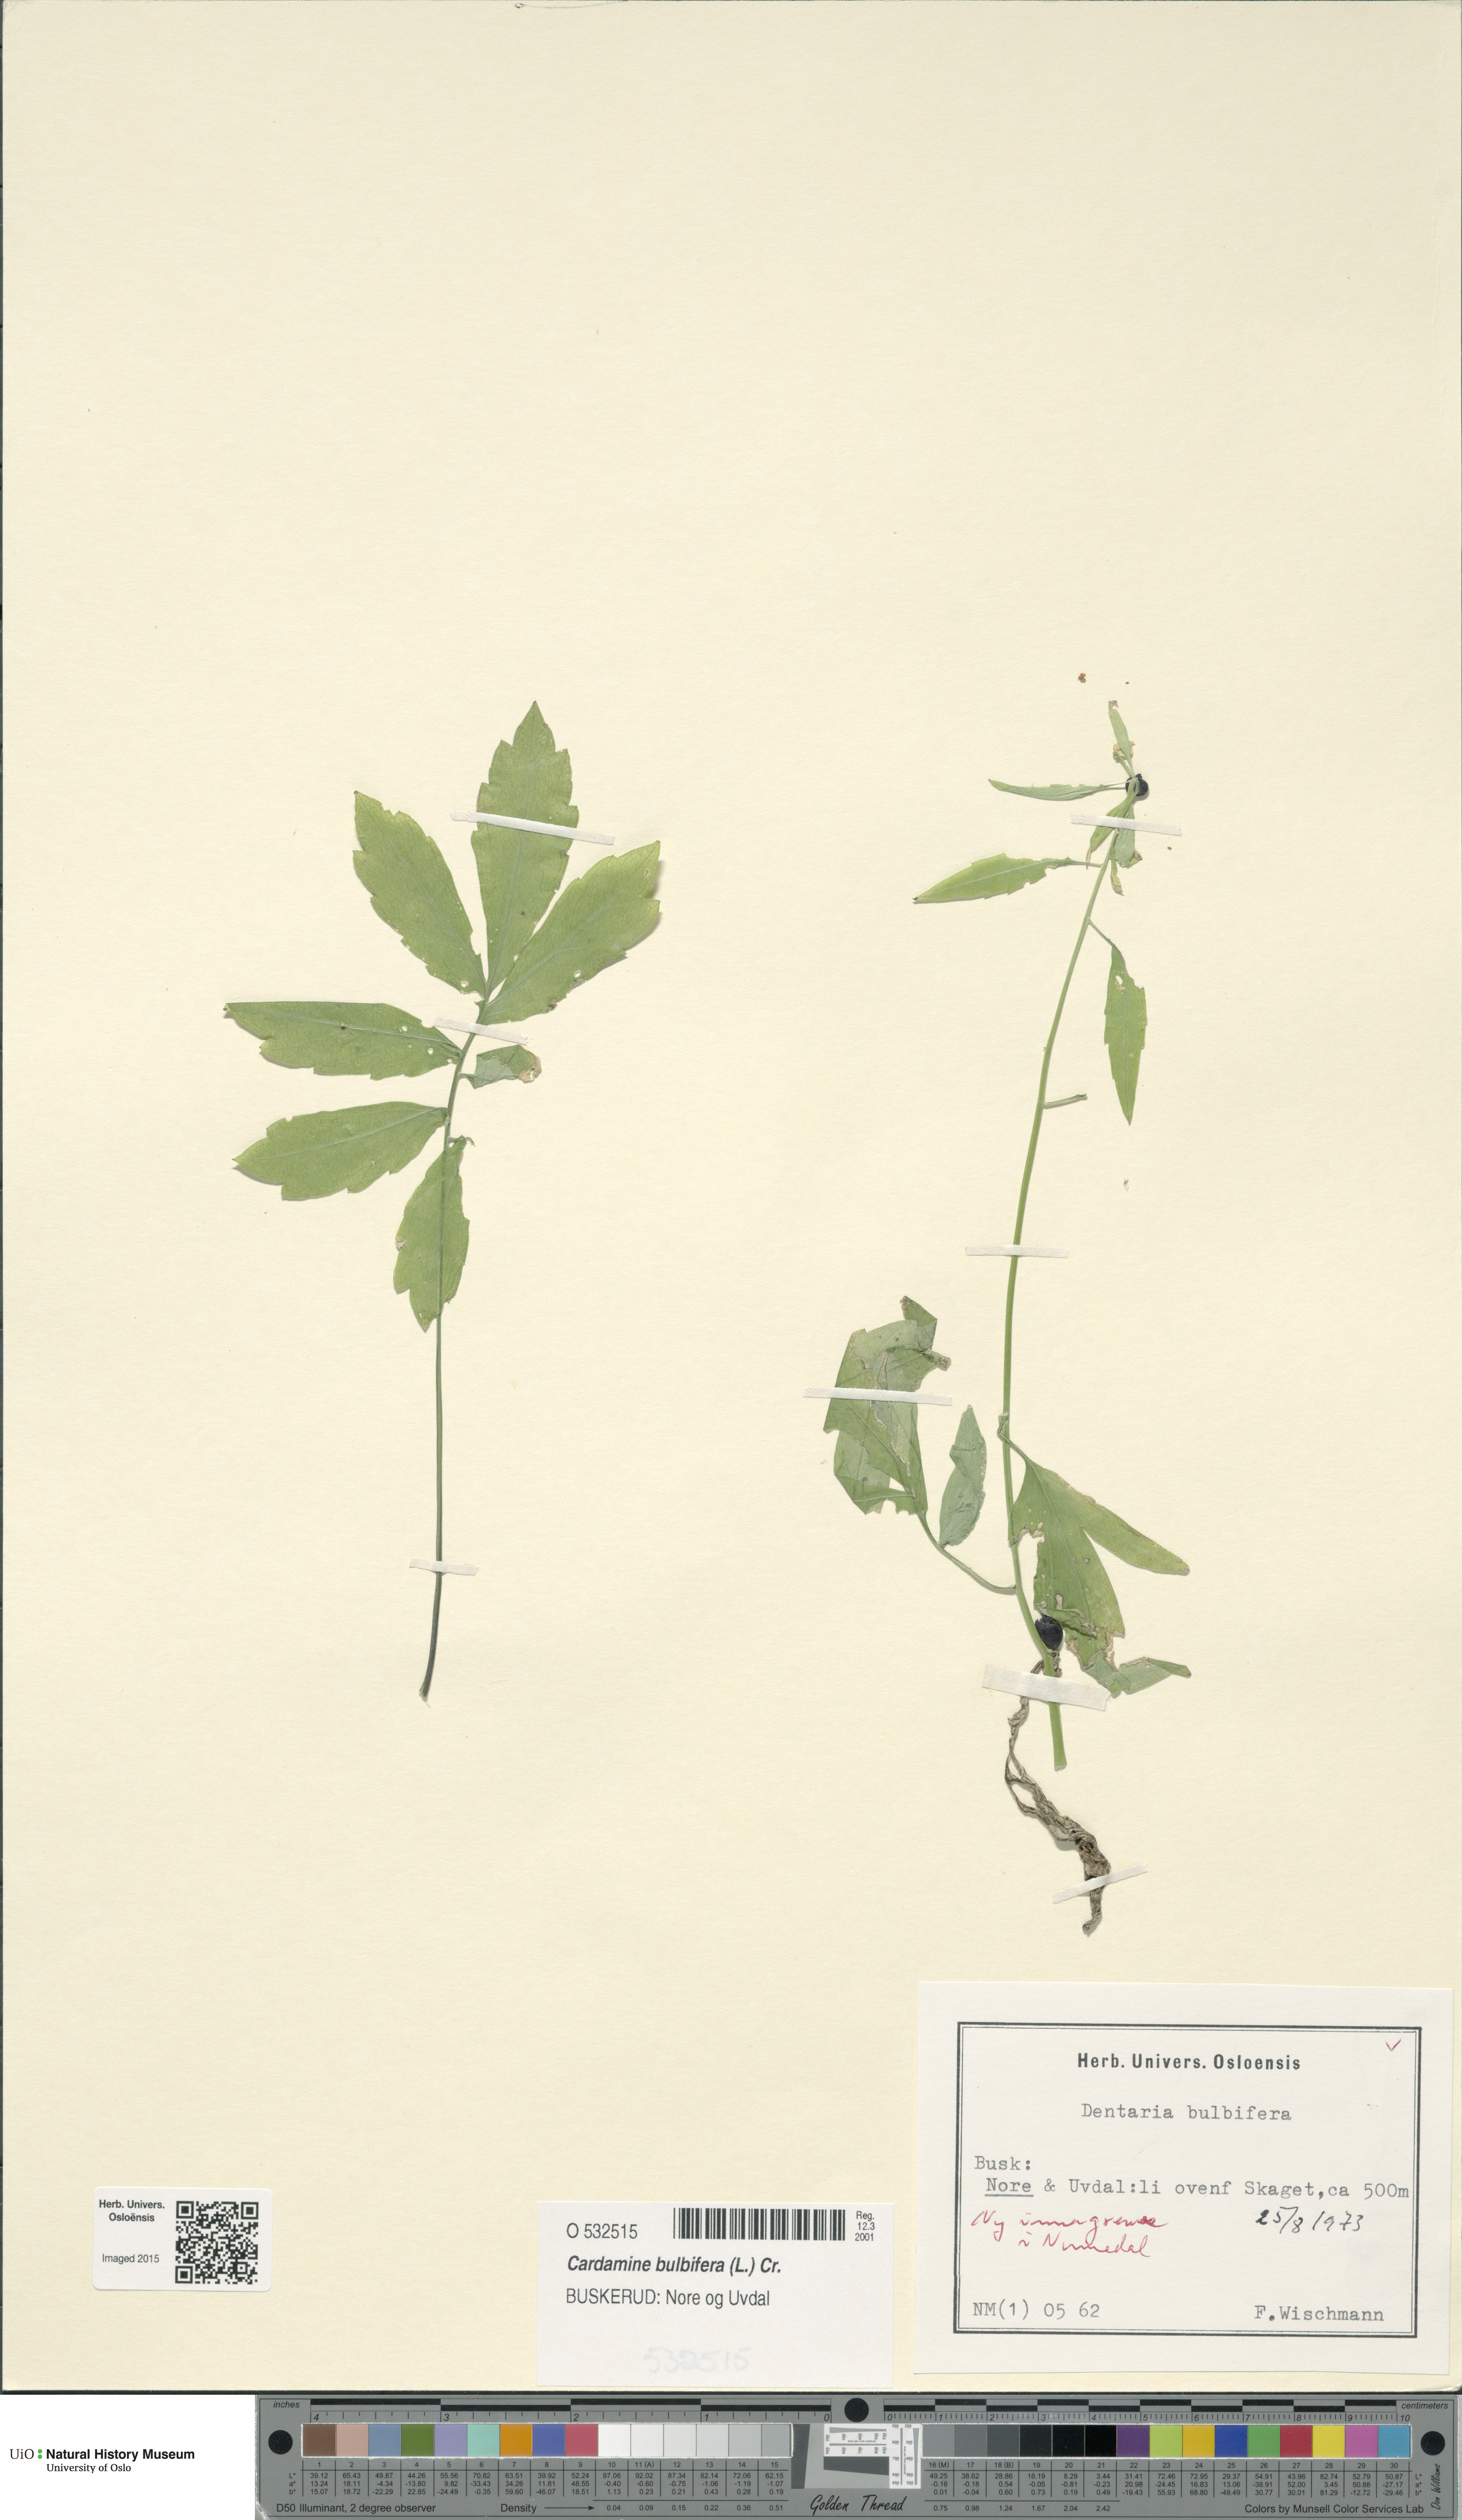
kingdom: Plantae
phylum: Tracheophyta
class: Magnoliopsida
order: Brassicales
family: Brassicaceae
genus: Cardamine
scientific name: Cardamine bulbifera
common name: Coralroot bittercress
